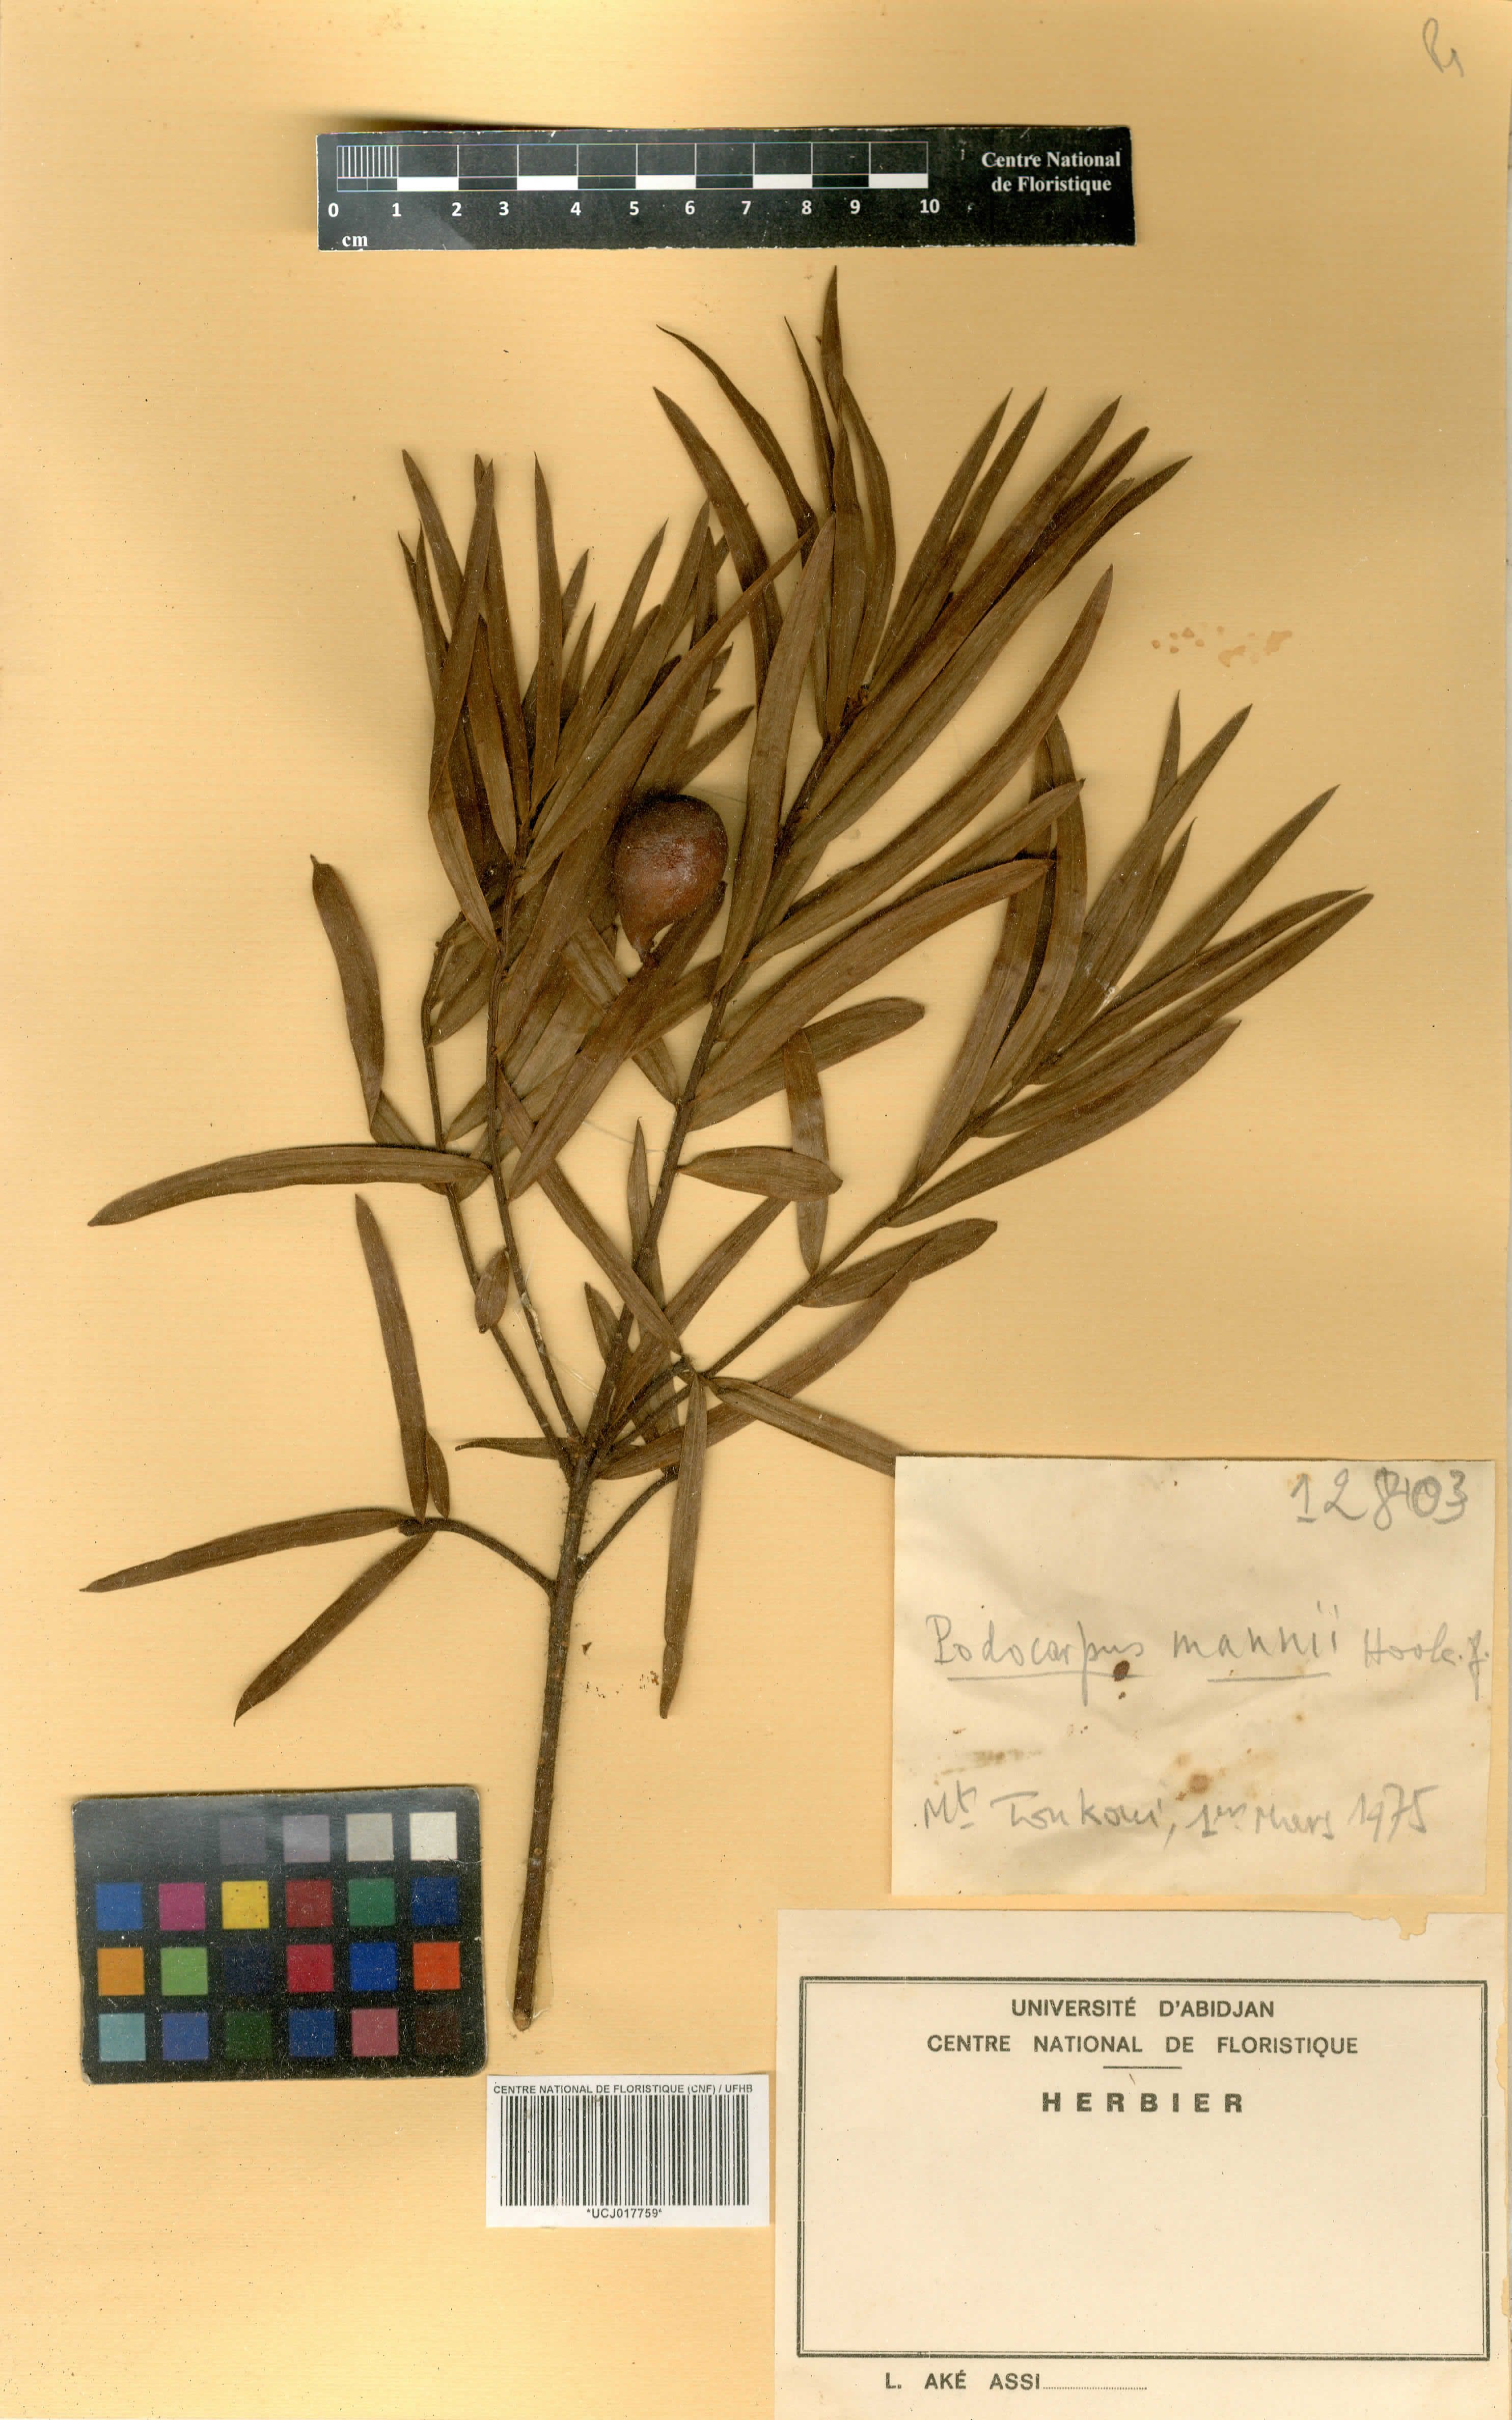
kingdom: Plantae
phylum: Tracheophyta
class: Pinopsida
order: Pinales
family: Podocarpaceae
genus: Afrocarpus
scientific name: Afrocarpus mannii
